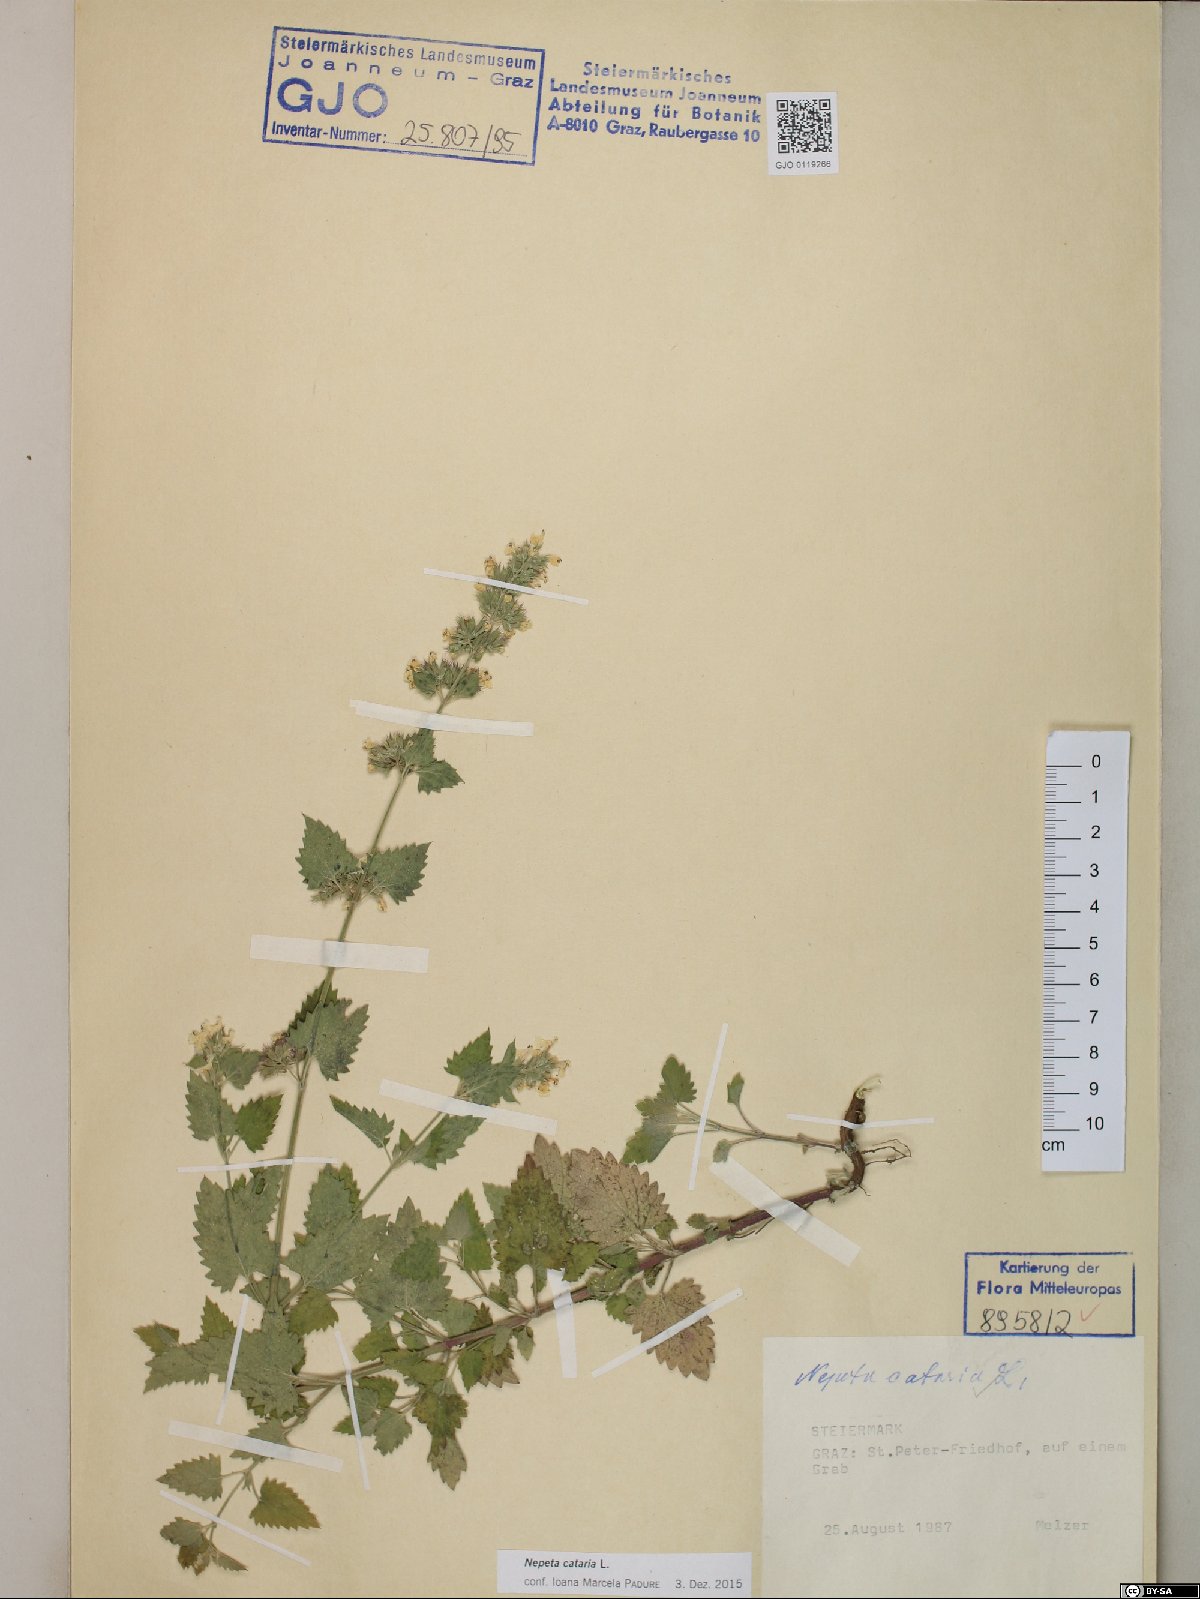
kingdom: Plantae
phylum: Tracheophyta
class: Magnoliopsida
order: Lamiales
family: Lamiaceae
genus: Nepeta
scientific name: Nepeta cataria
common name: Catnip
